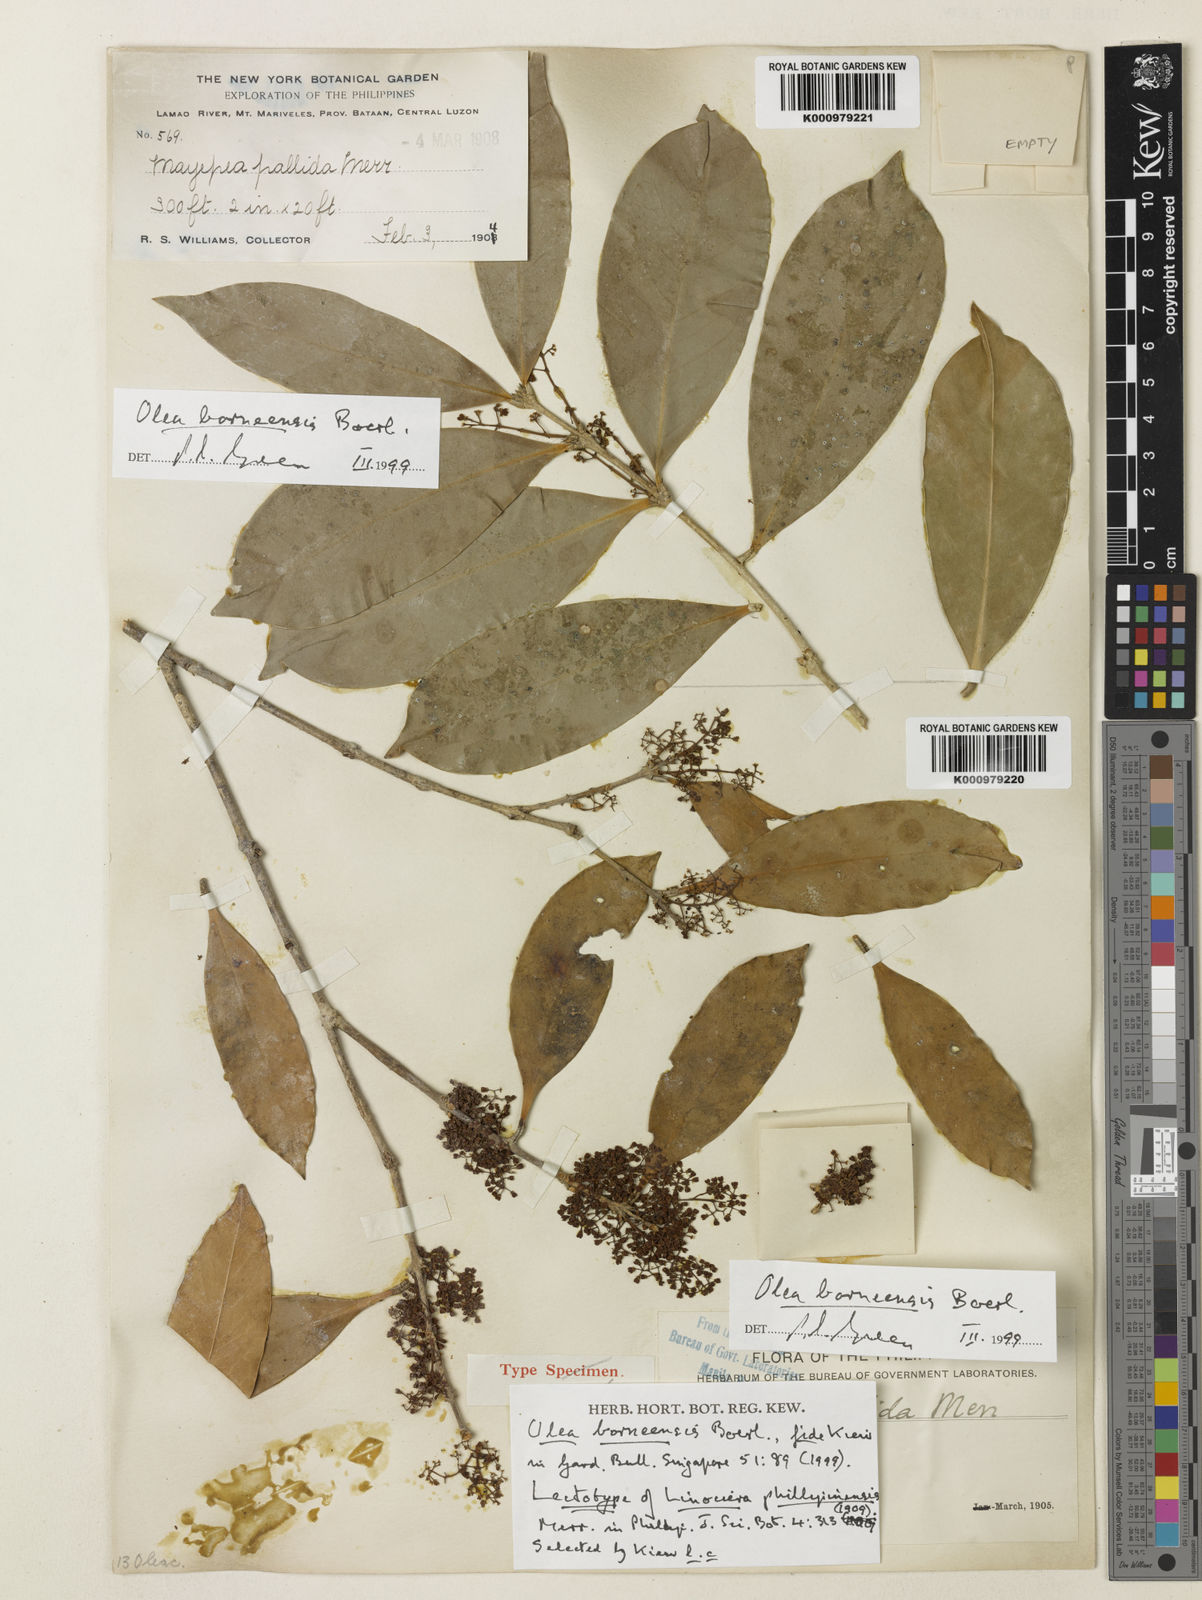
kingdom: Plantae
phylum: Tracheophyta
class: Magnoliopsida
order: Lamiales
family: Oleaceae
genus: Tetrapilus
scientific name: Tetrapilus borneensis
